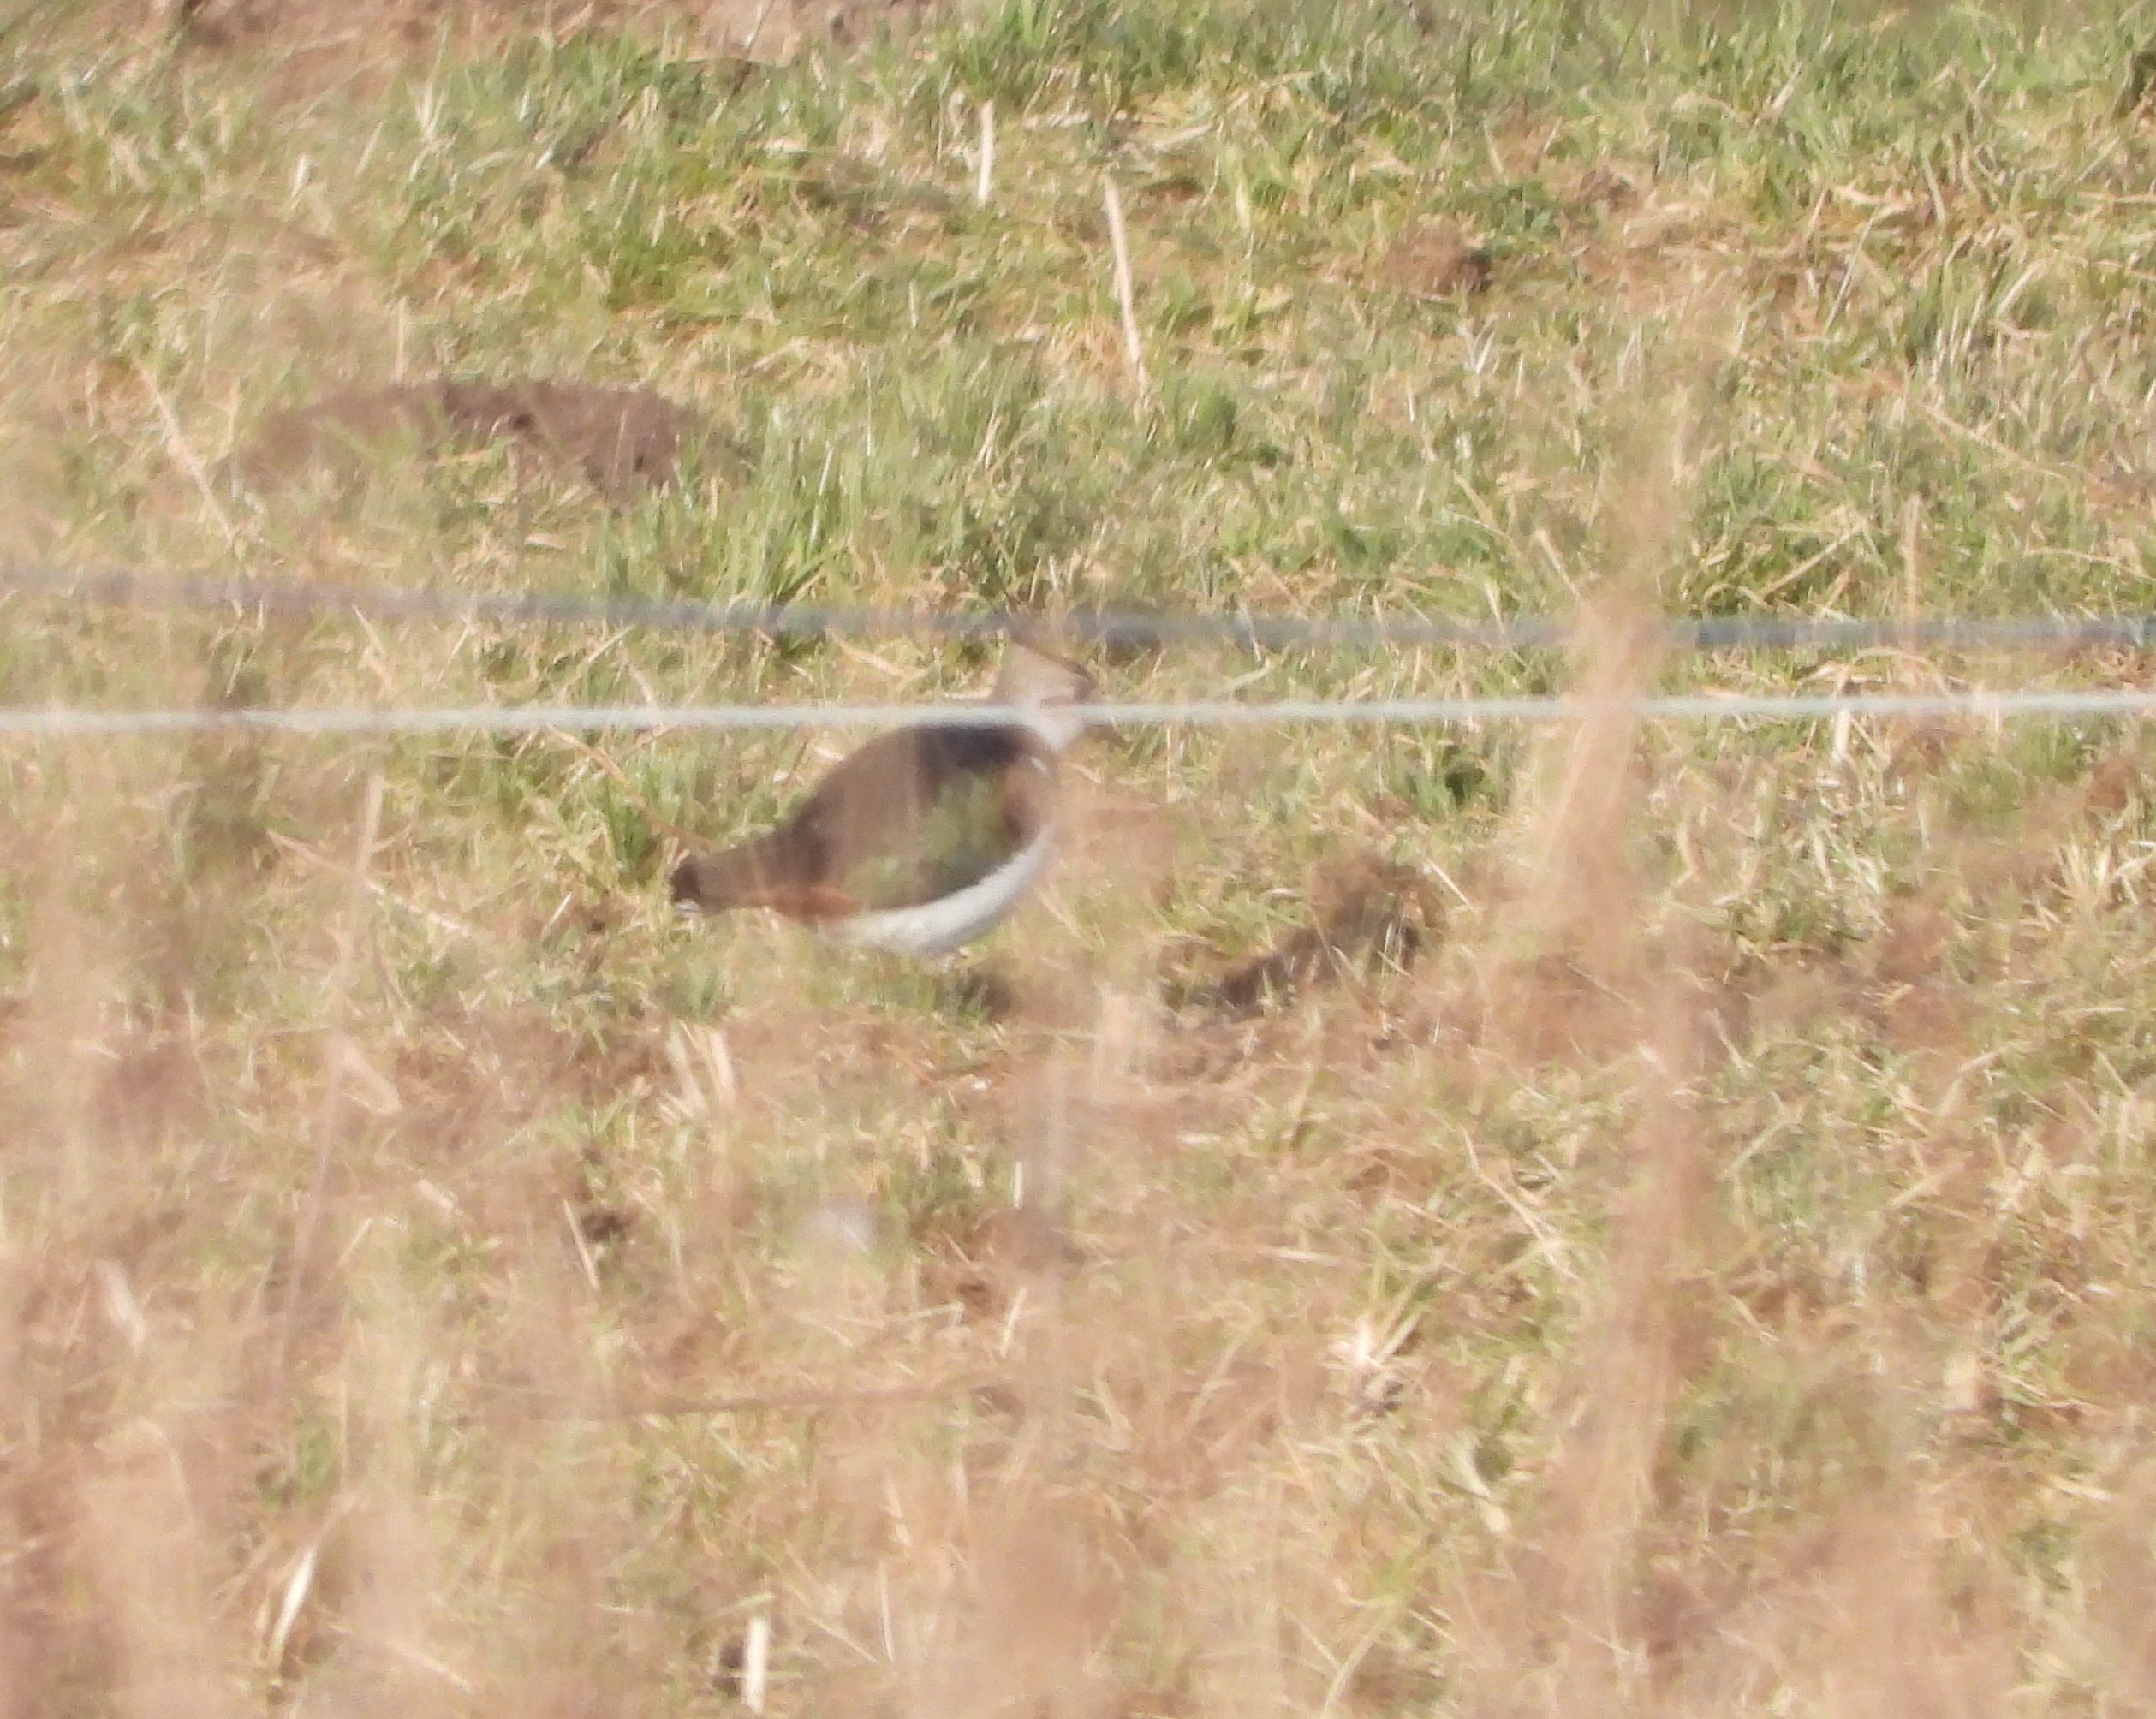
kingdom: Animalia
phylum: Chordata
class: Aves
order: Charadriiformes
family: Charadriidae
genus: Vanellus
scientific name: Vanellus vanellus
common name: Vibe
